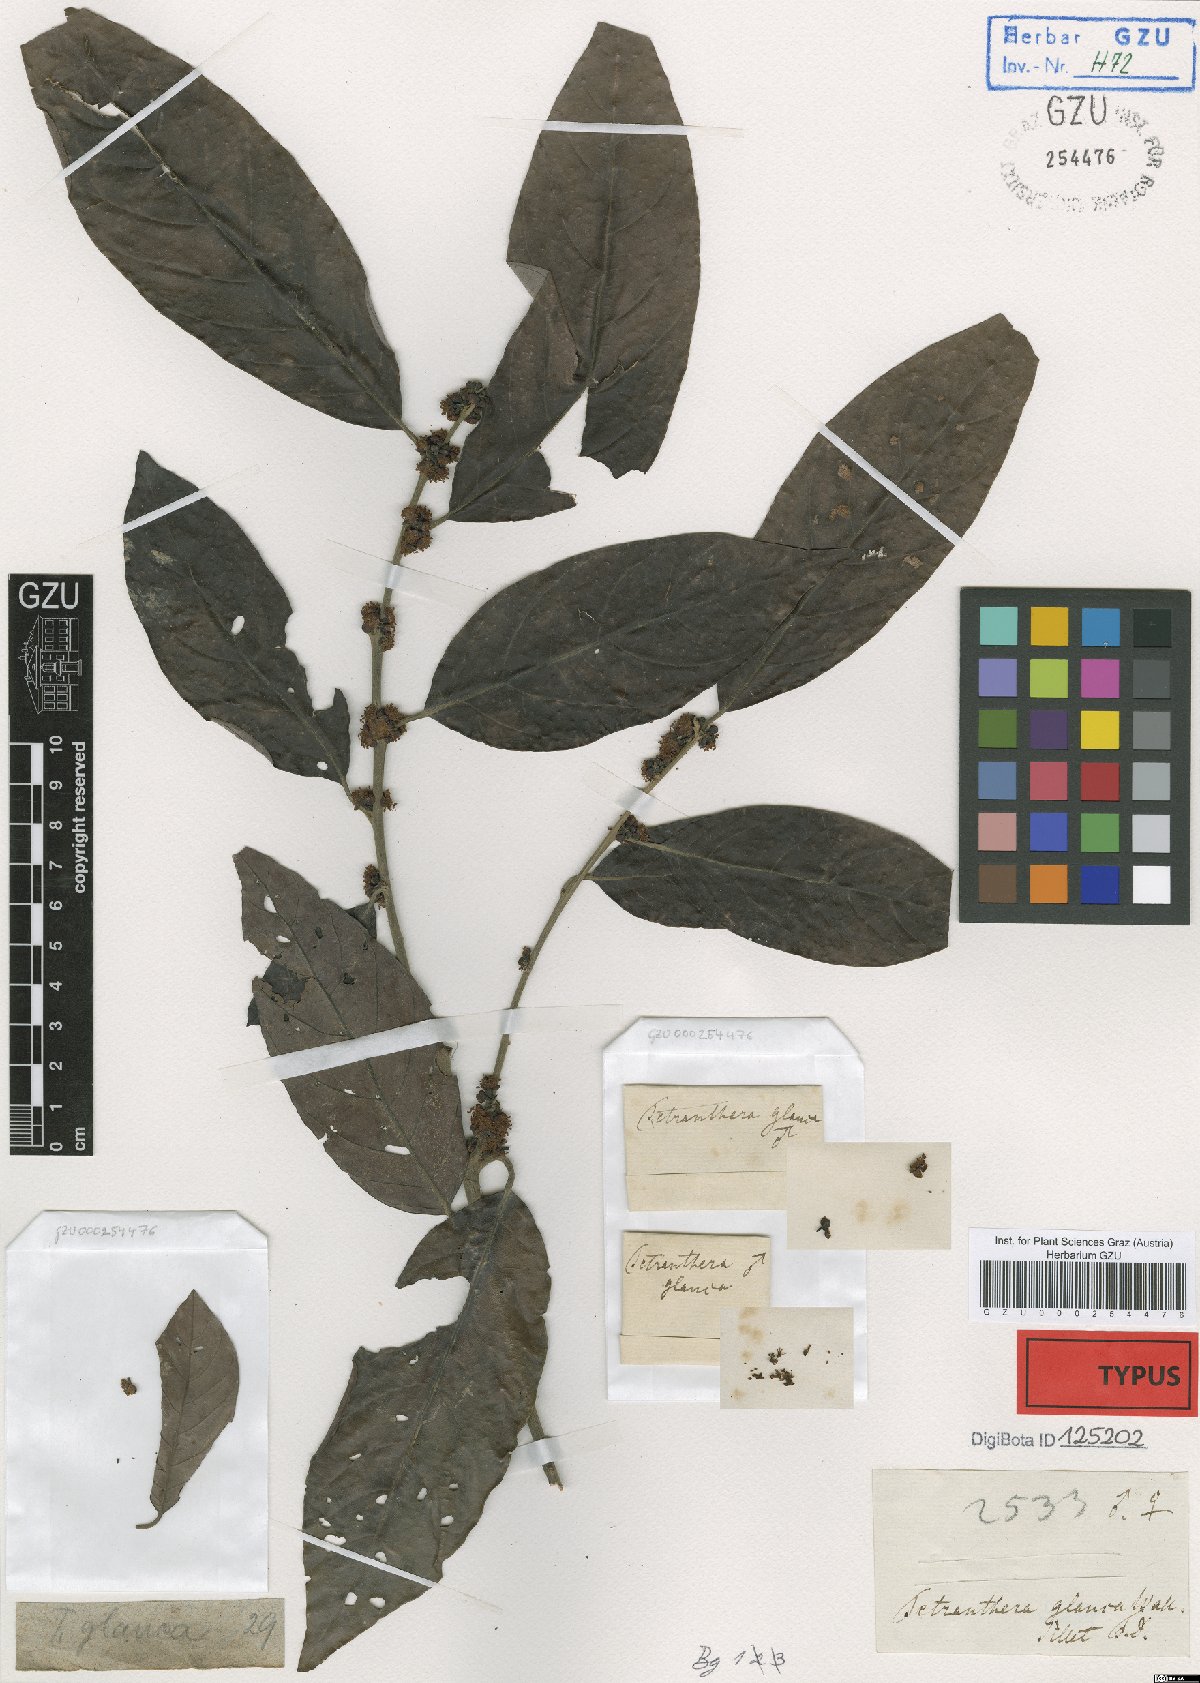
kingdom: Plantae
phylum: Tracheophyta
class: Magnoliopsida
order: Laurales
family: Lauraceae
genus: Litsea
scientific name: Litsea salicifolia
